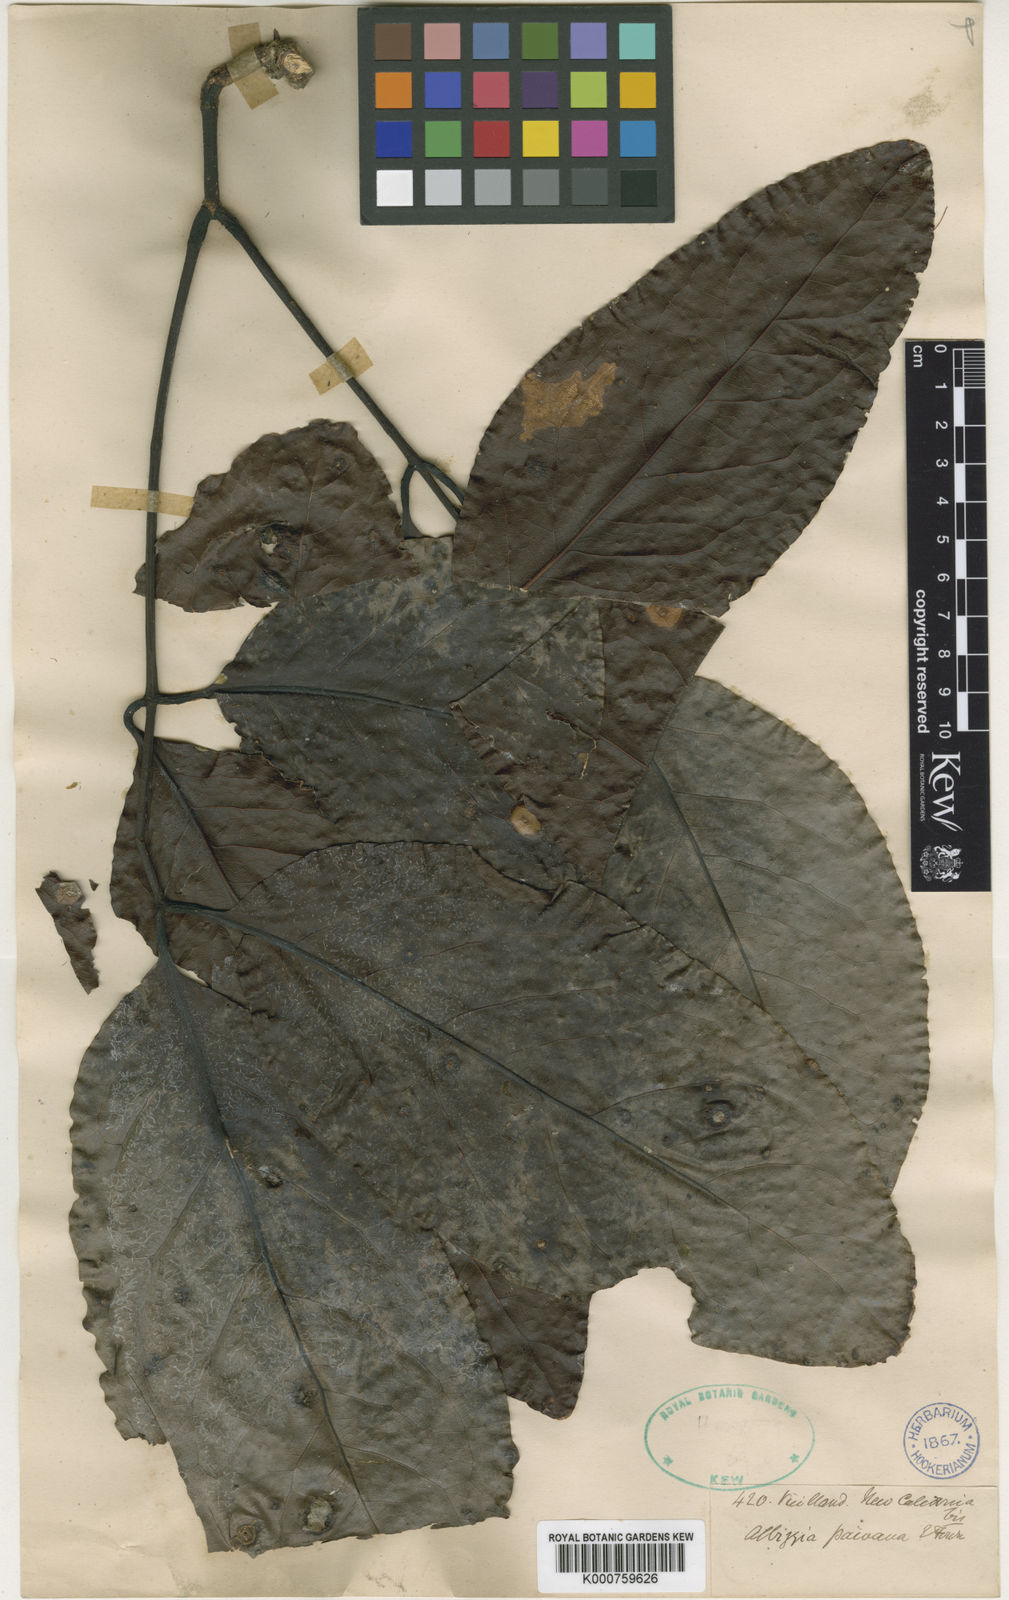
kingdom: Plantae
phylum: Tracheophyta
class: Magnoliopsida
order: Fabales
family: Fabaceae
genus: Archidendropsis
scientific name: Archidendropsis paivana
